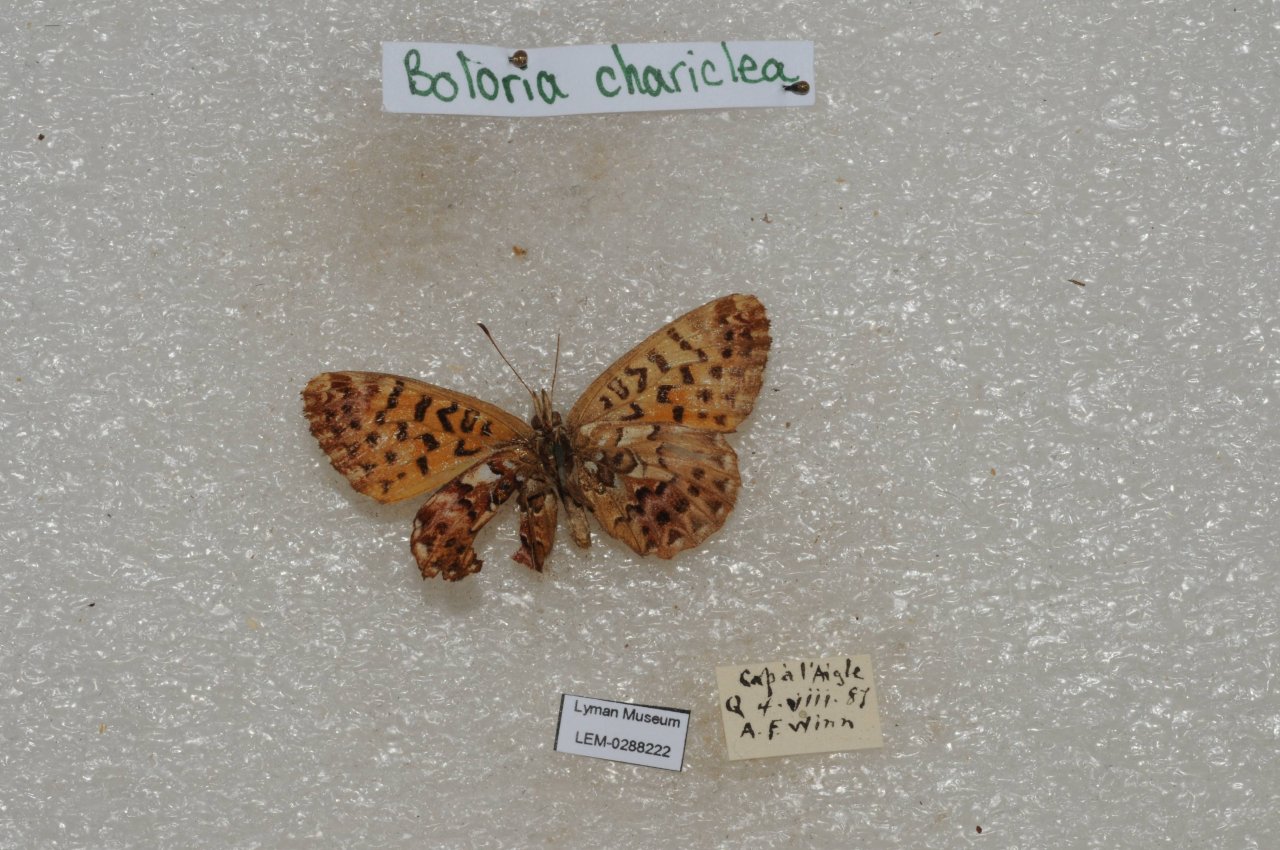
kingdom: Animalia
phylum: Arthropoda
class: Insecta
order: Lepidoptera
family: Nymphalidae
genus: Boloria
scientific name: Boloria chariclea
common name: Arctic Fritillary
